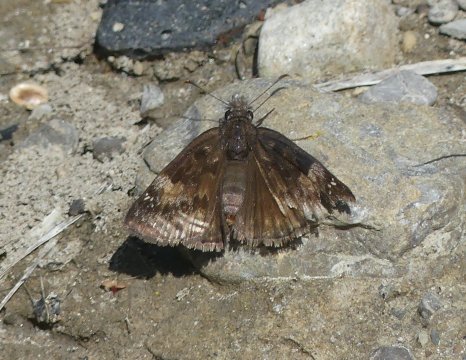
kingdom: Animalia
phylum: Arthropoda
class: Insecta
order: Lepidoptera
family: Hesperiidae
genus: Gesta
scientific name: Gesta
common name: Wild Indigo Duskywing
